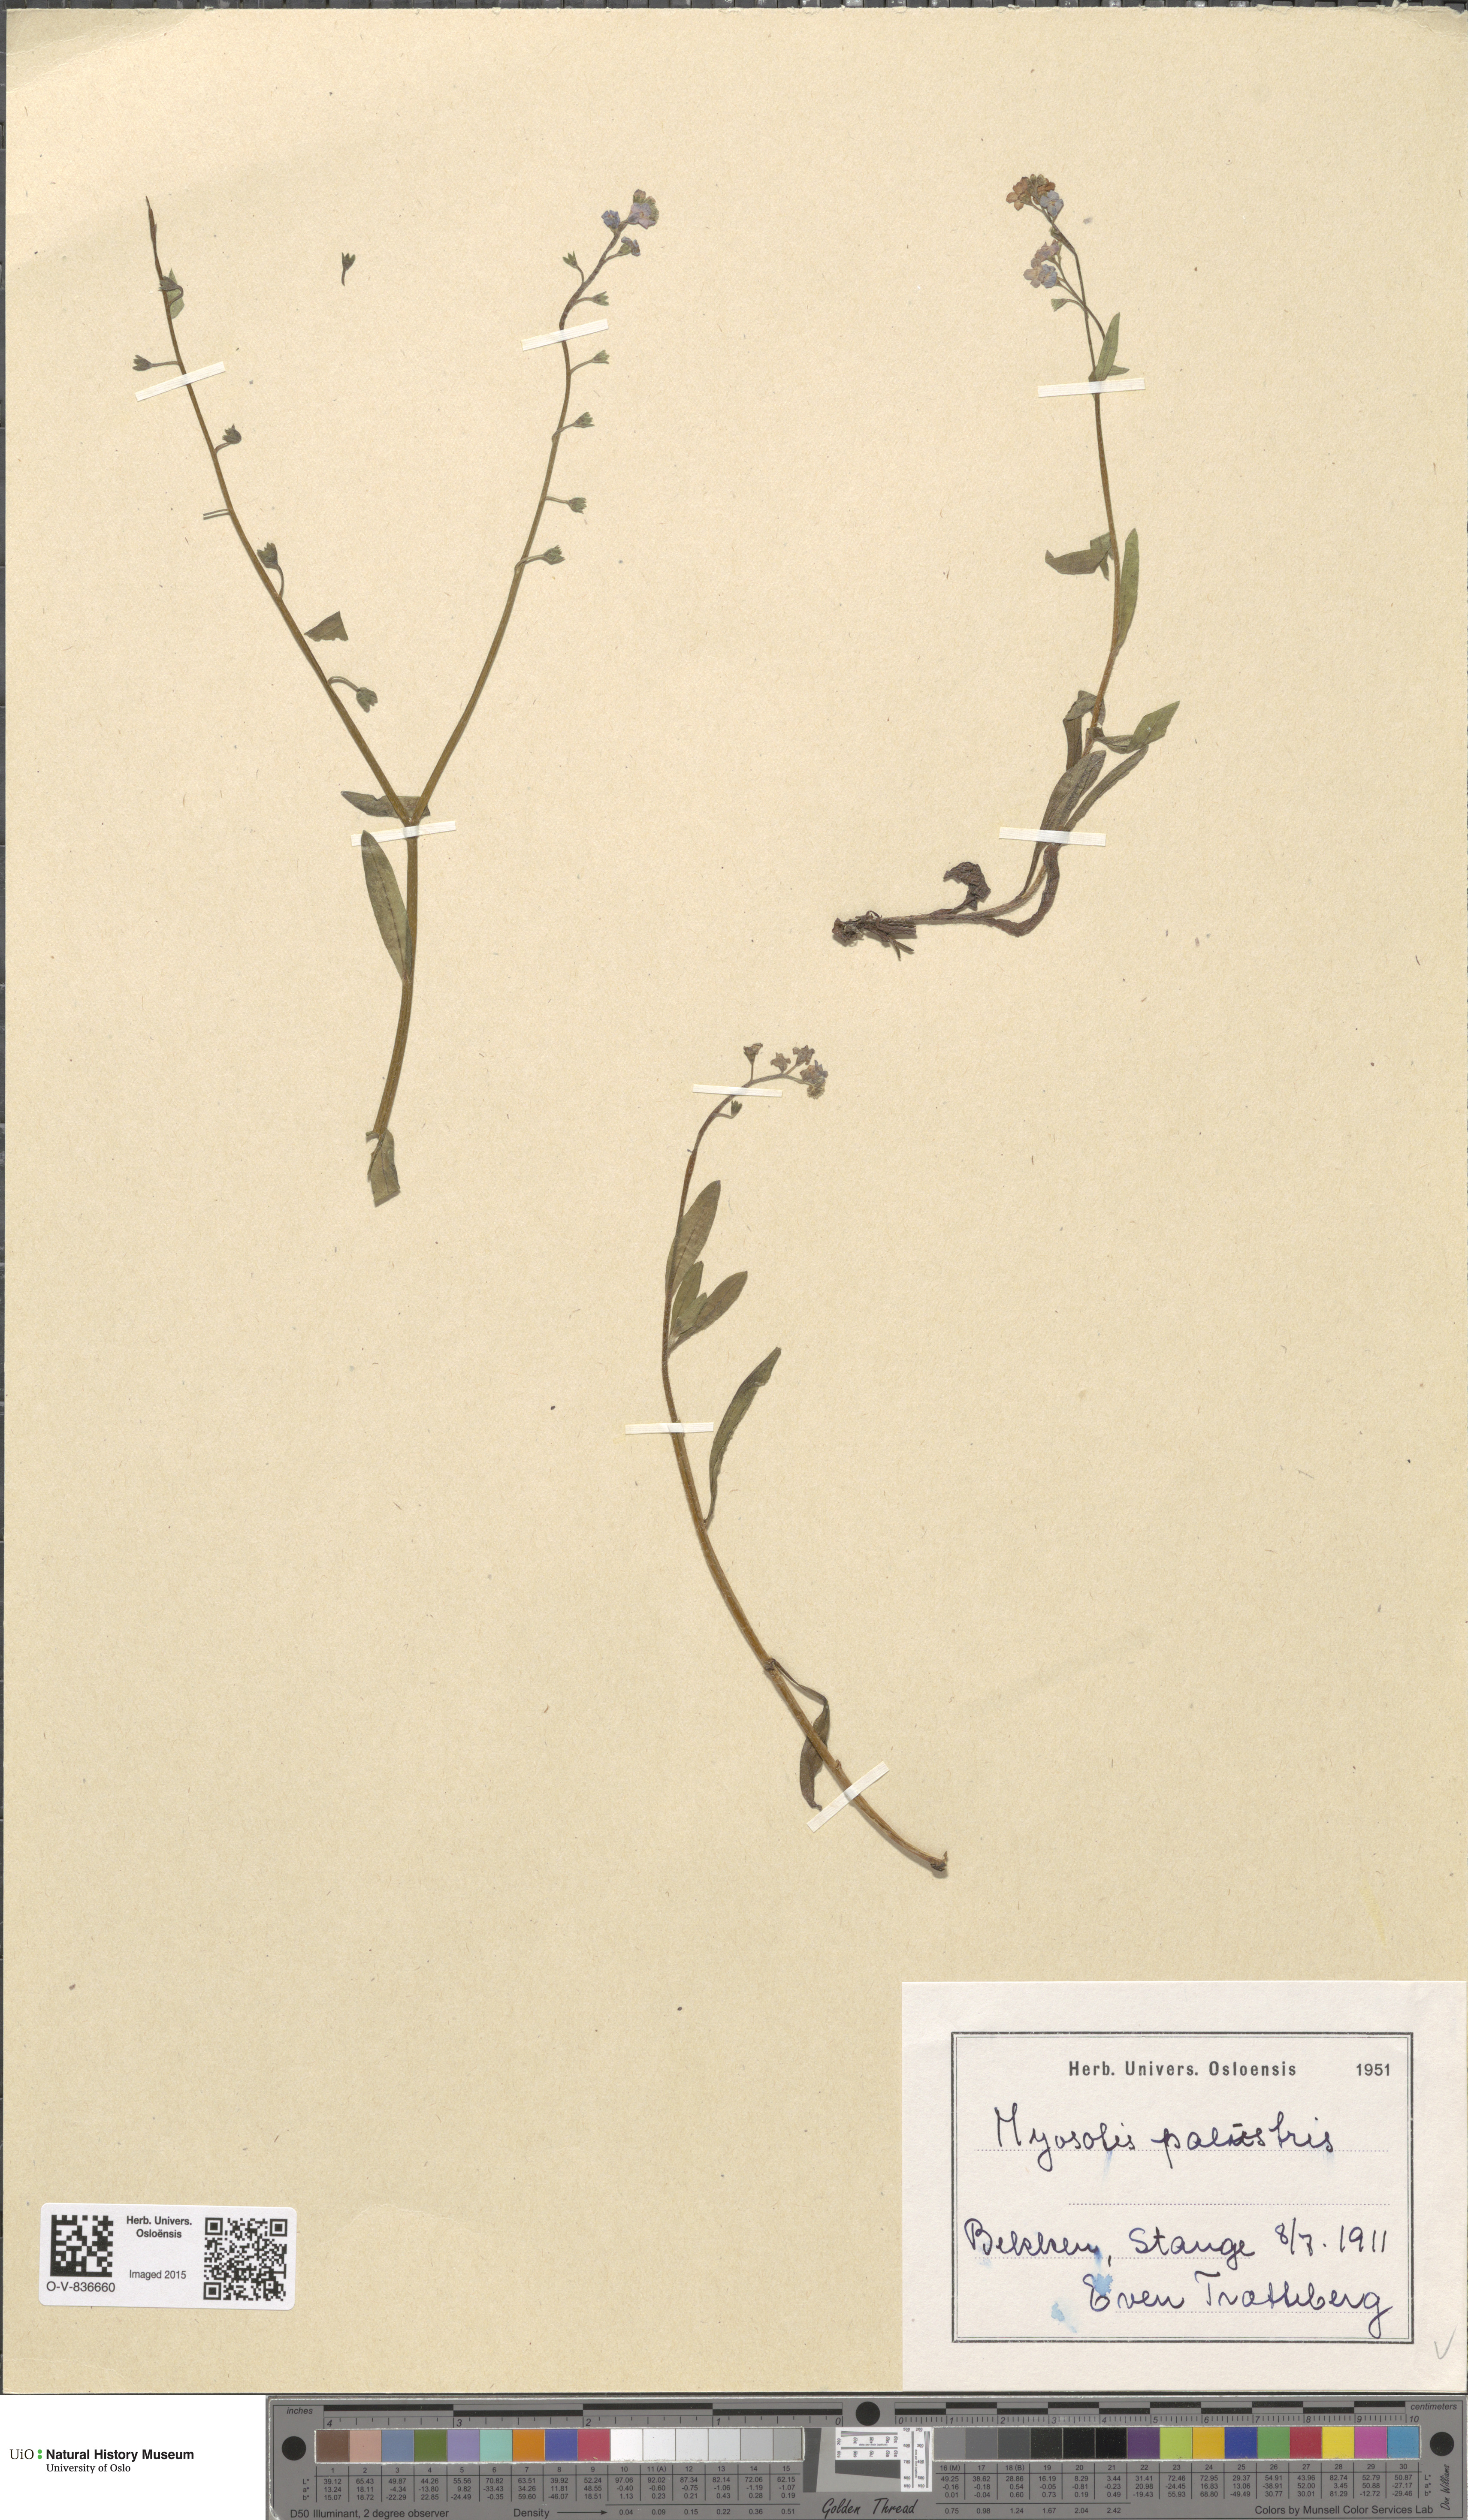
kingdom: Plantae
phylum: Tracheophyta
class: Magnoliopsida
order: Boraginales
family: Boraginaceae
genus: Myosotis
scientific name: Myosotis scorpioides
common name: Water forget-me-not
